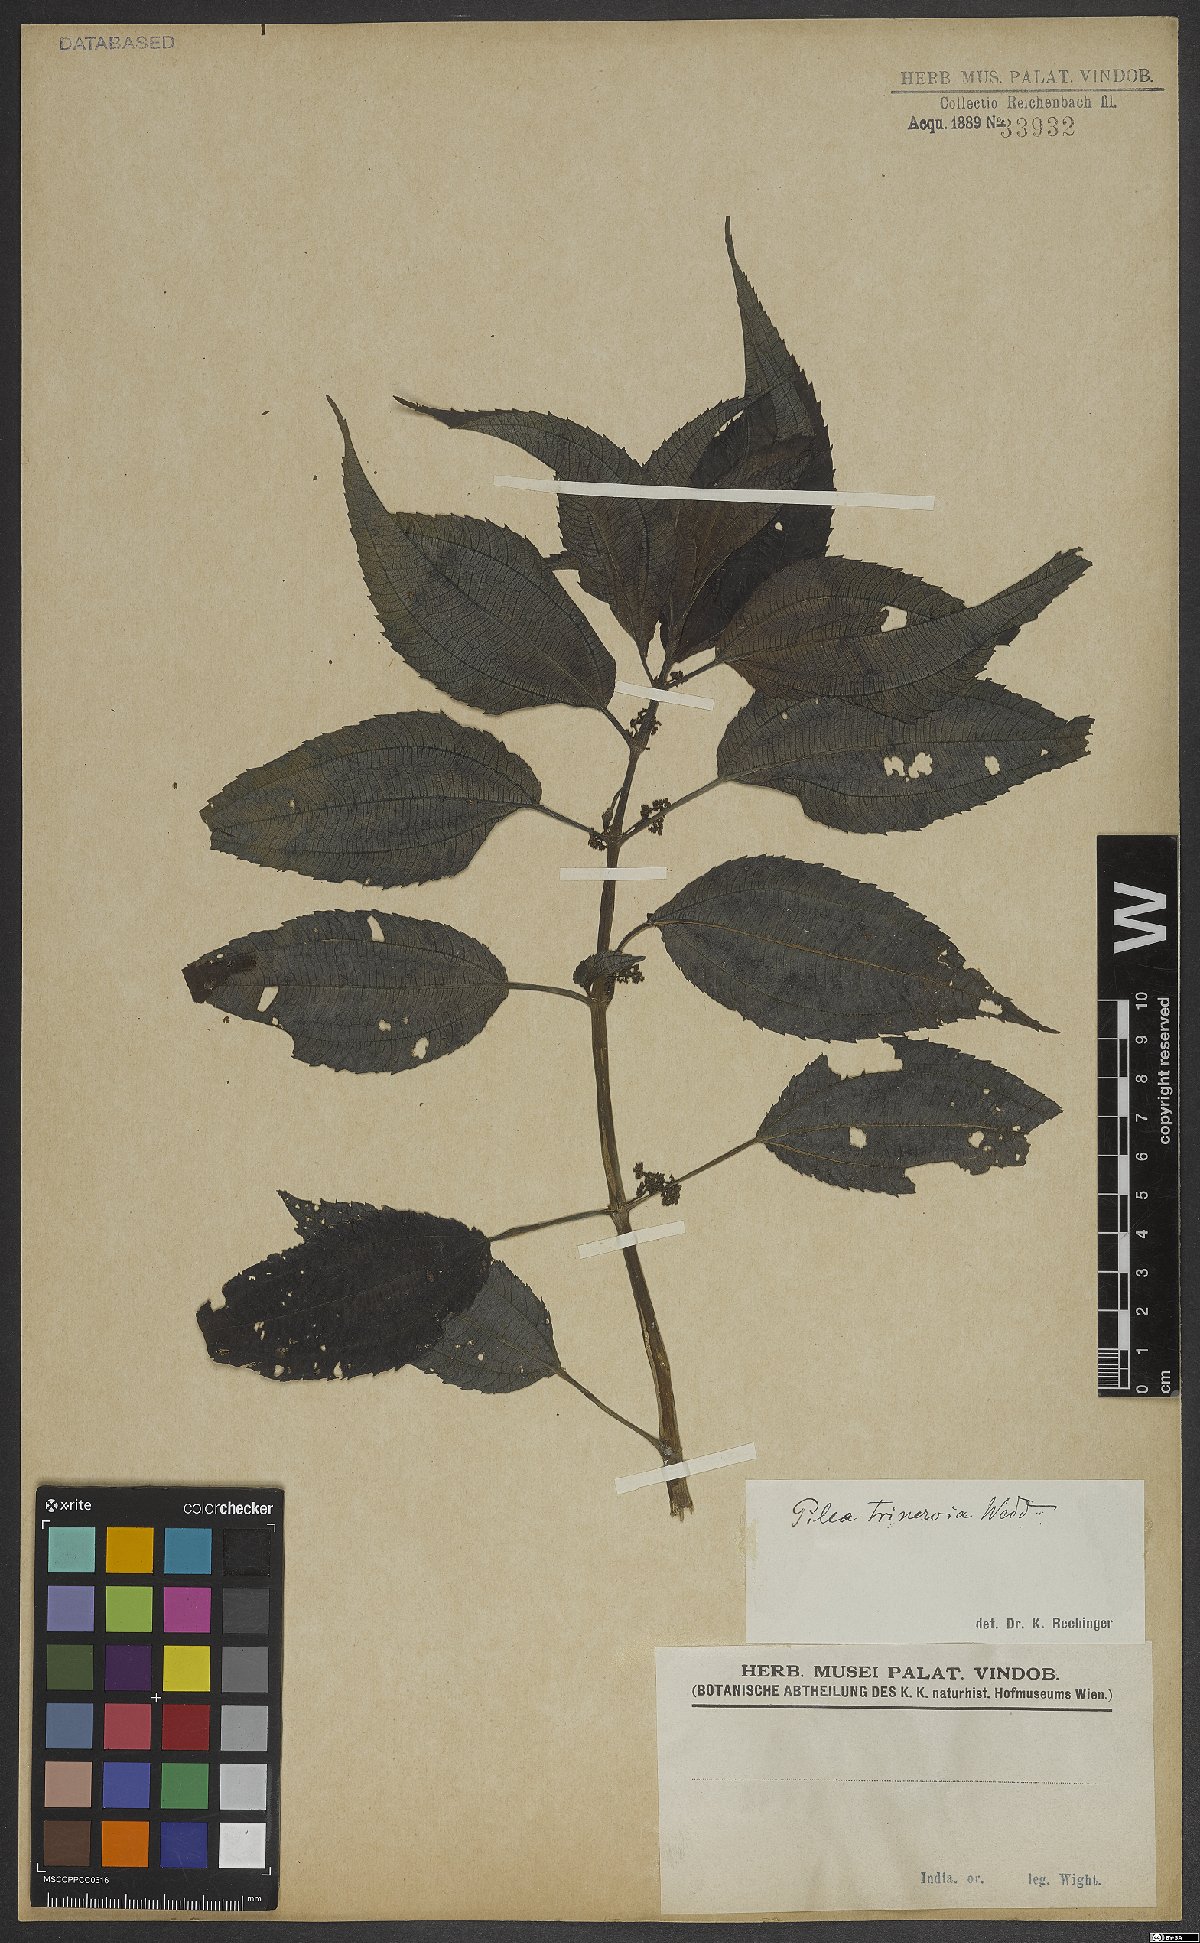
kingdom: Plantae
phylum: Tracheophyta
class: Magnoliopsida
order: Rosales
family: Urticaceae
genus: Pilea
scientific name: Pilea melastomoides
